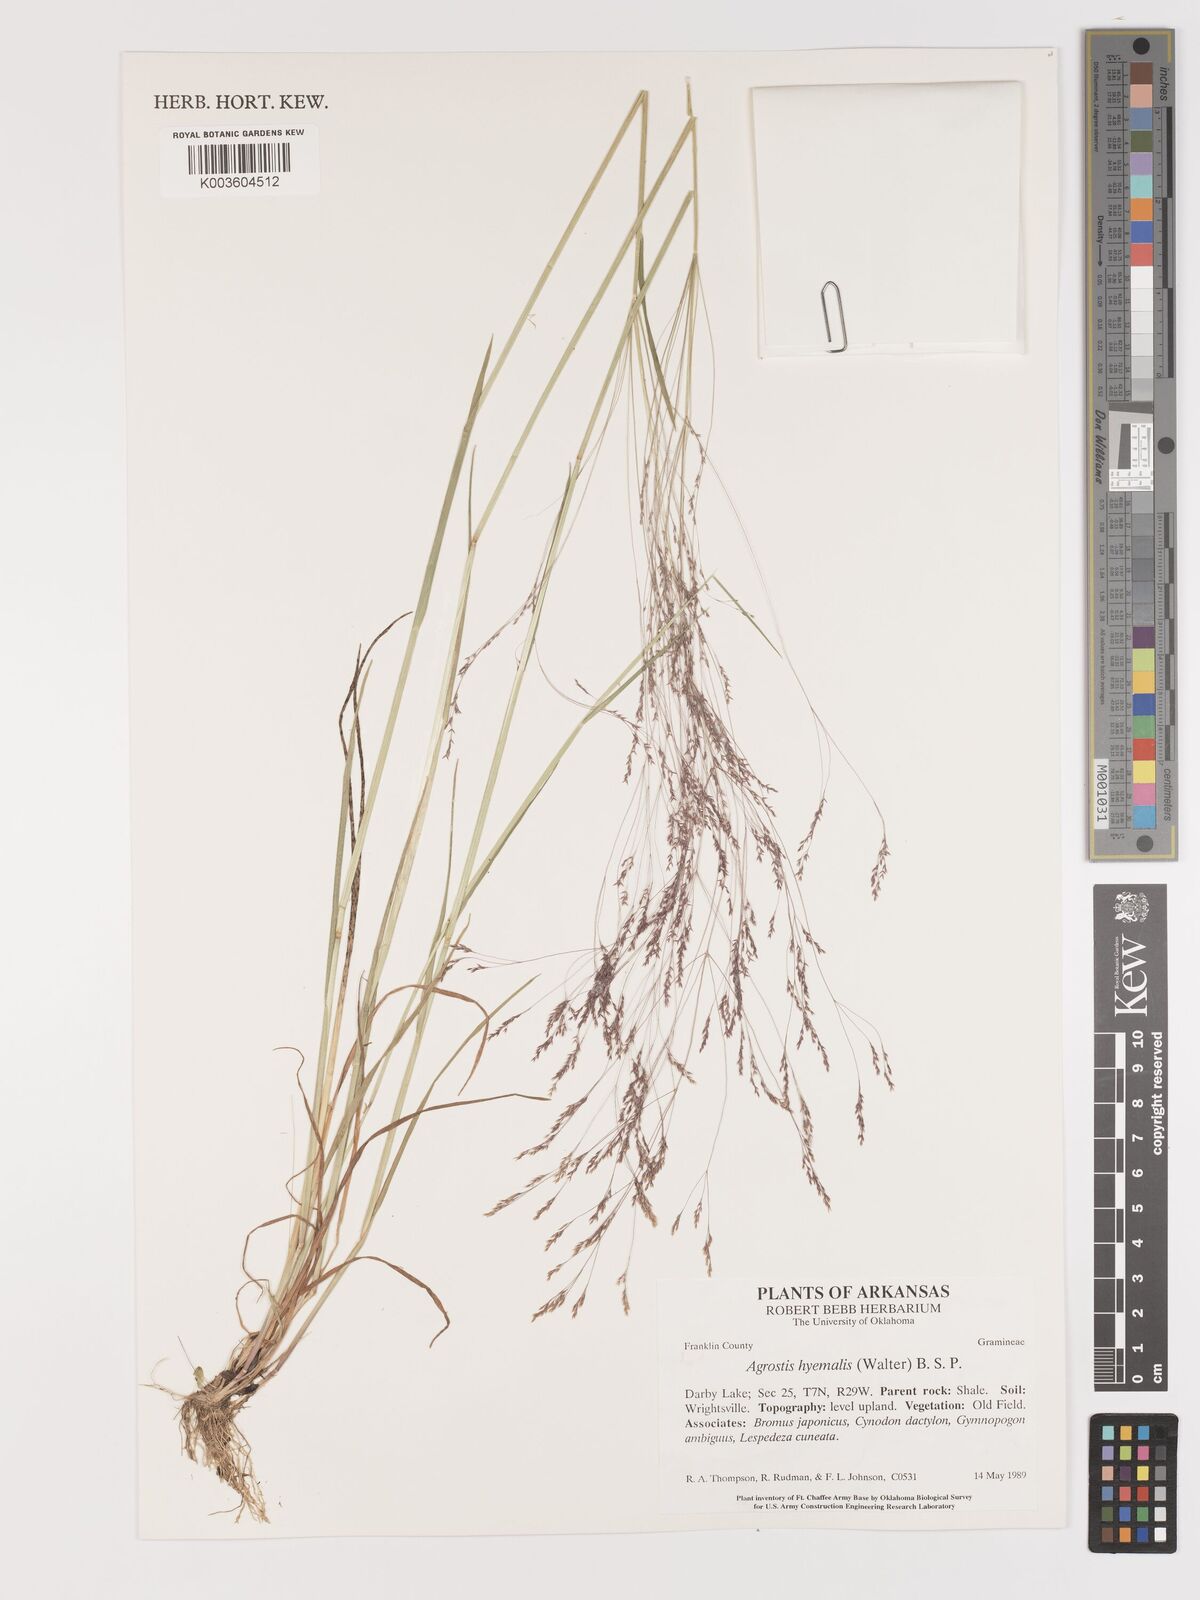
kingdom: Plantae
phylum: Tracheophyta
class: Liliopsida
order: Poales
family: Poaceae
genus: Agrostis
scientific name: Agrostis hyemalis
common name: Small bent
